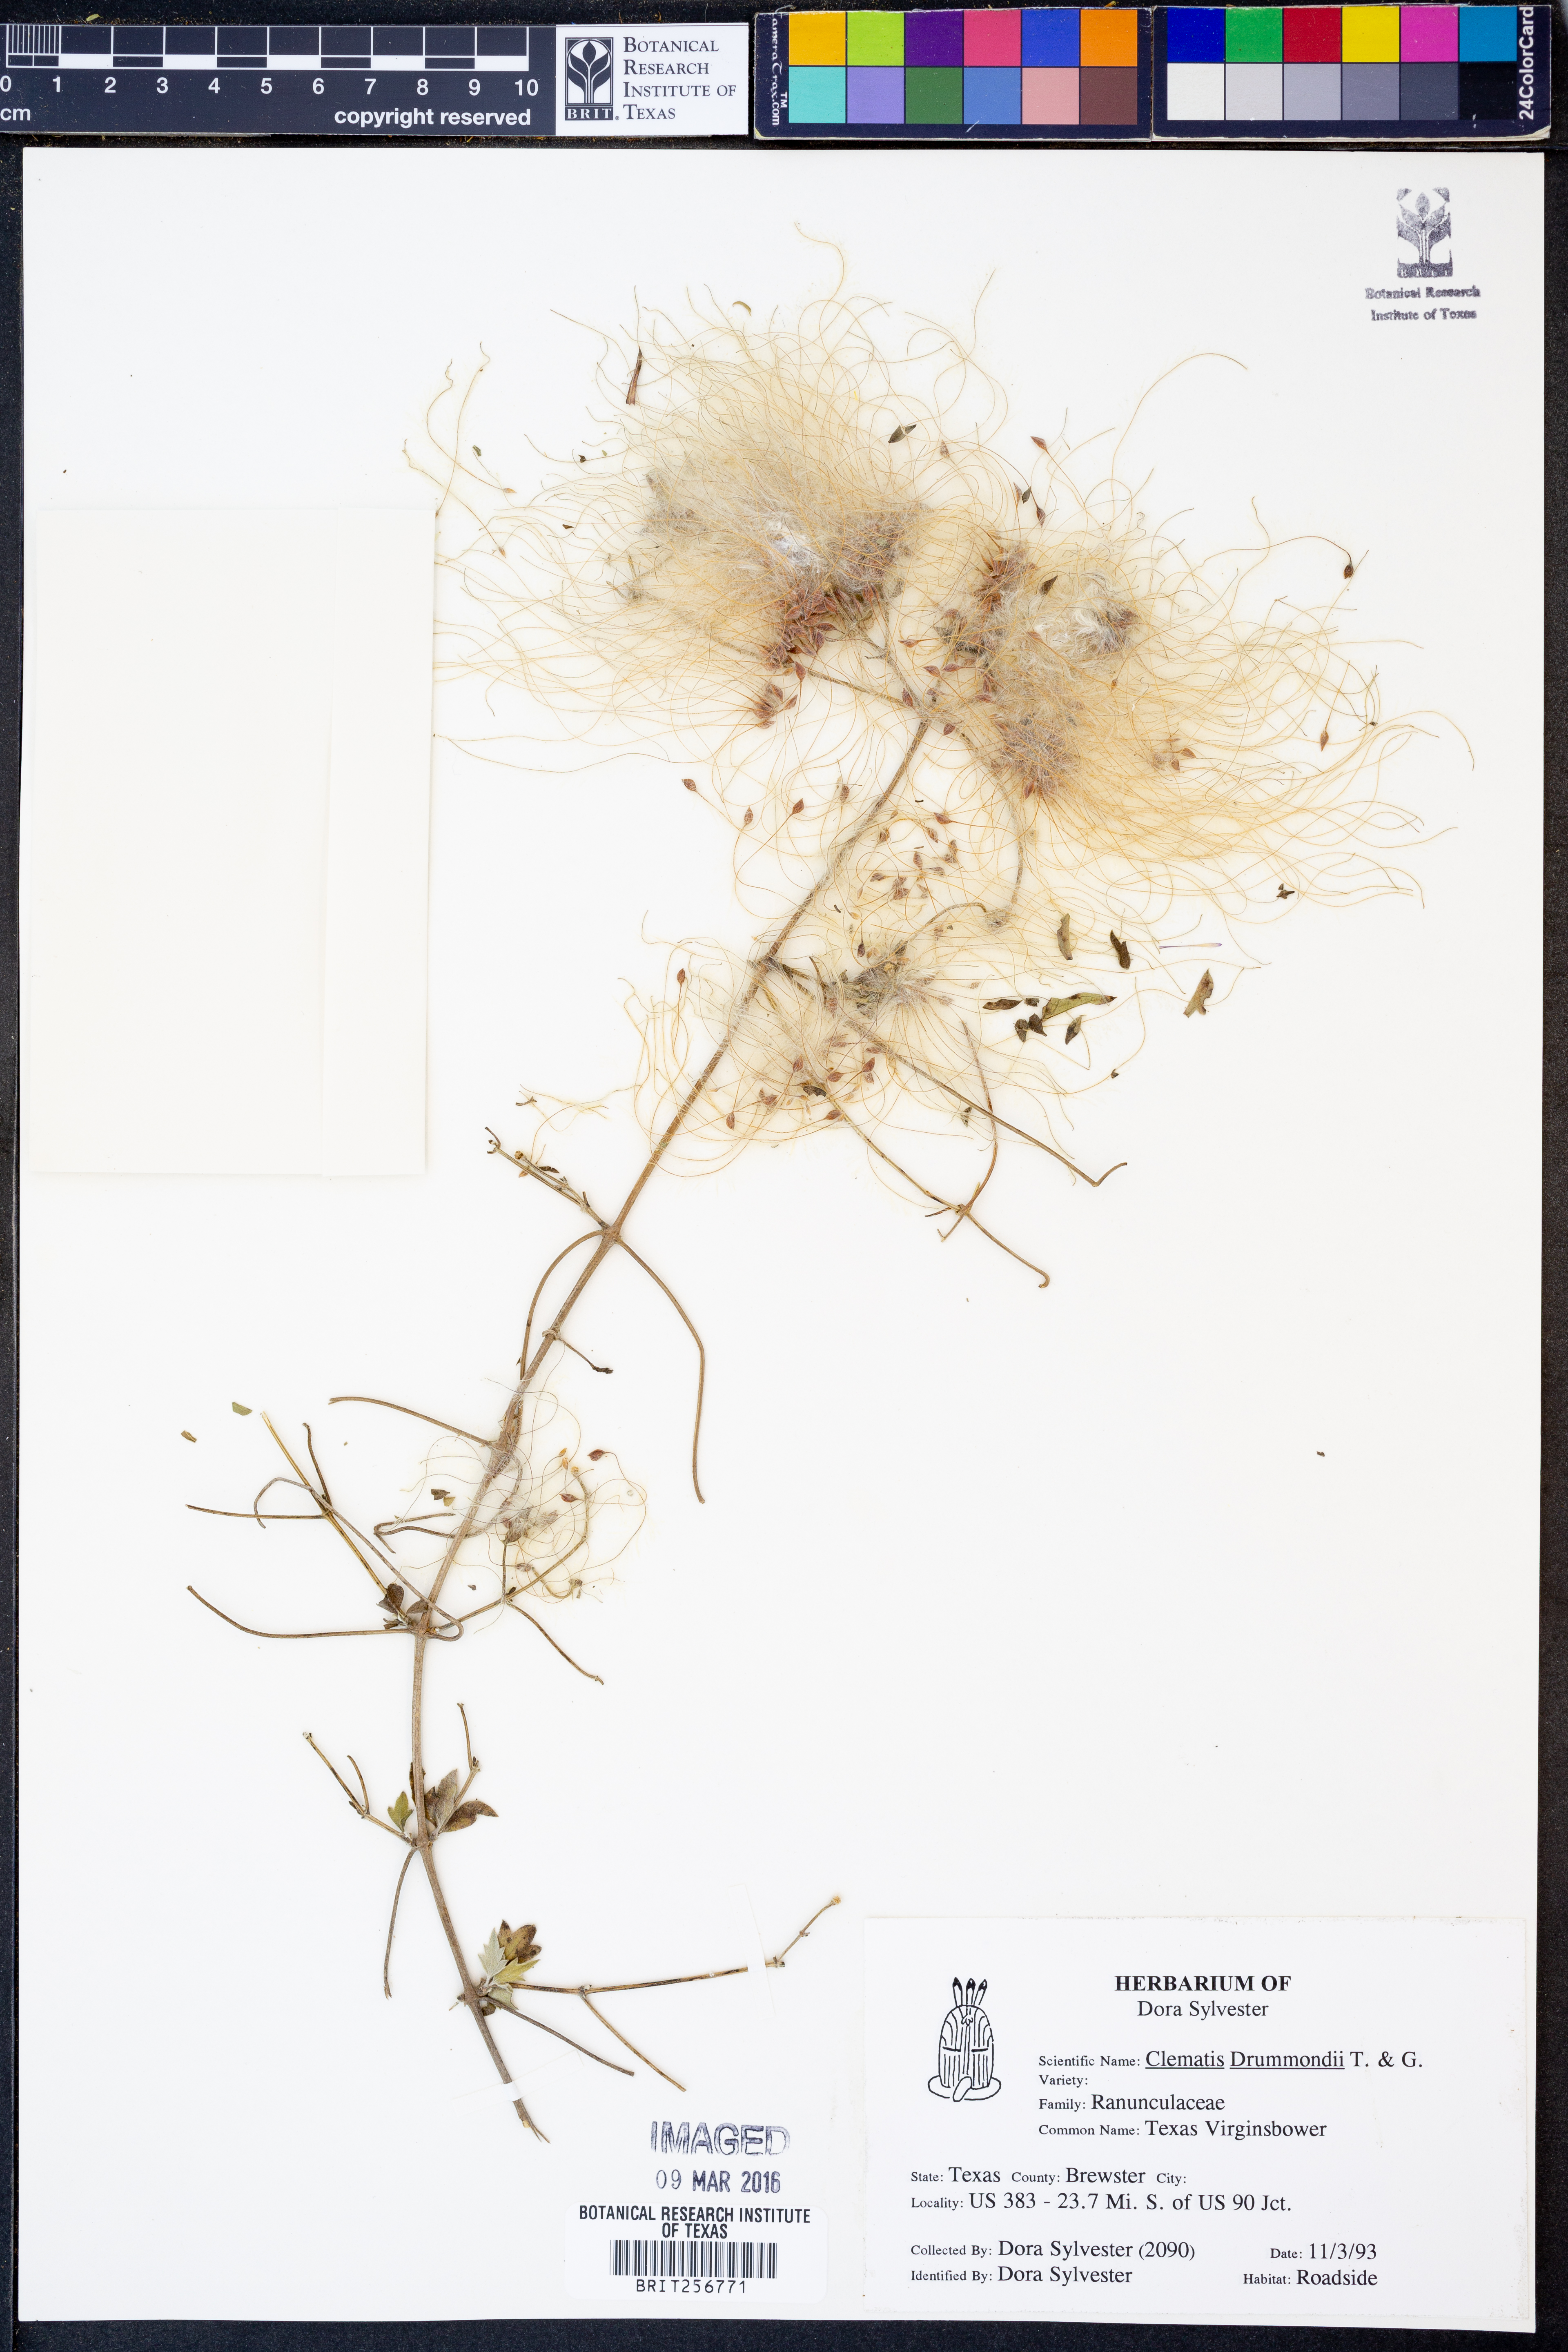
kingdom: Plantae
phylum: Tracheophyta
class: Magnoliopsida
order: Ranunculales
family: Ranunculaceae
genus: Clematis
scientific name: Clematis drummondii
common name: Texas virgin's bower
